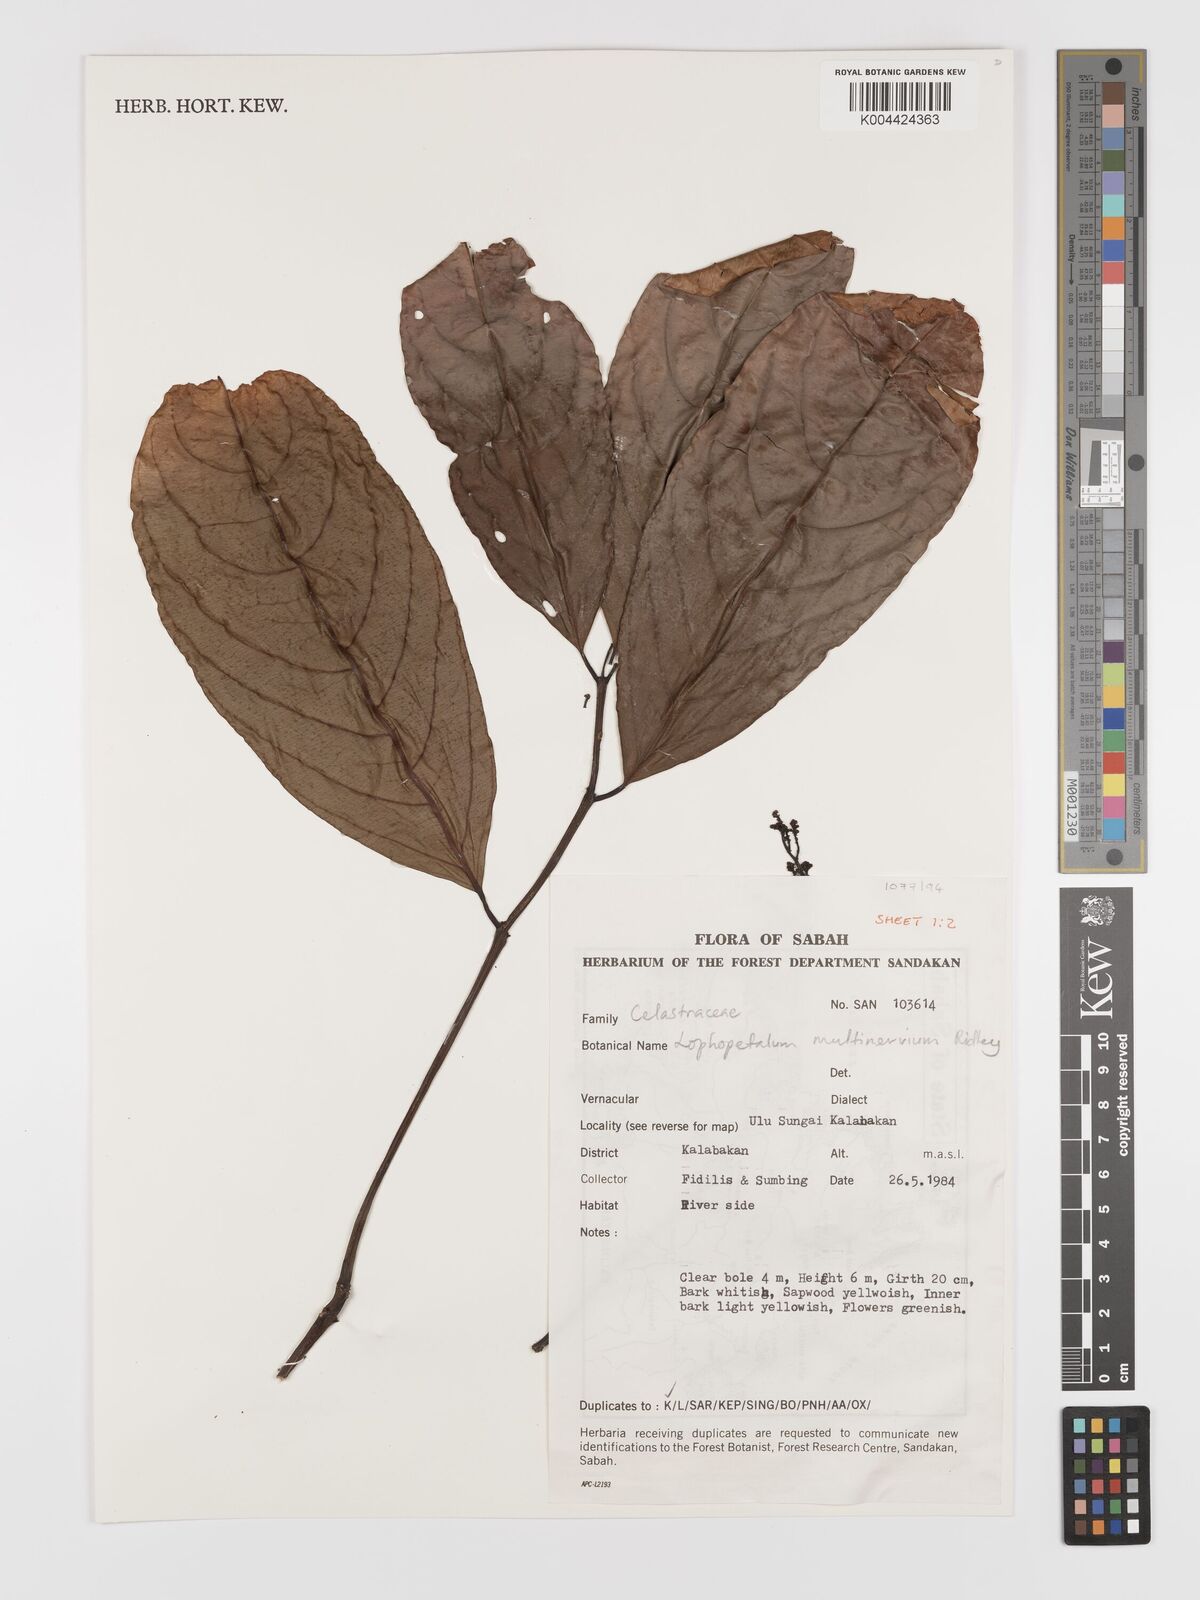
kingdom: Plantae
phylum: Tracheophyta
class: Magnoliopsida
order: Celastrales
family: Celastraceae
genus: Lophopetalum
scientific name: Lophopetalum multinervium
